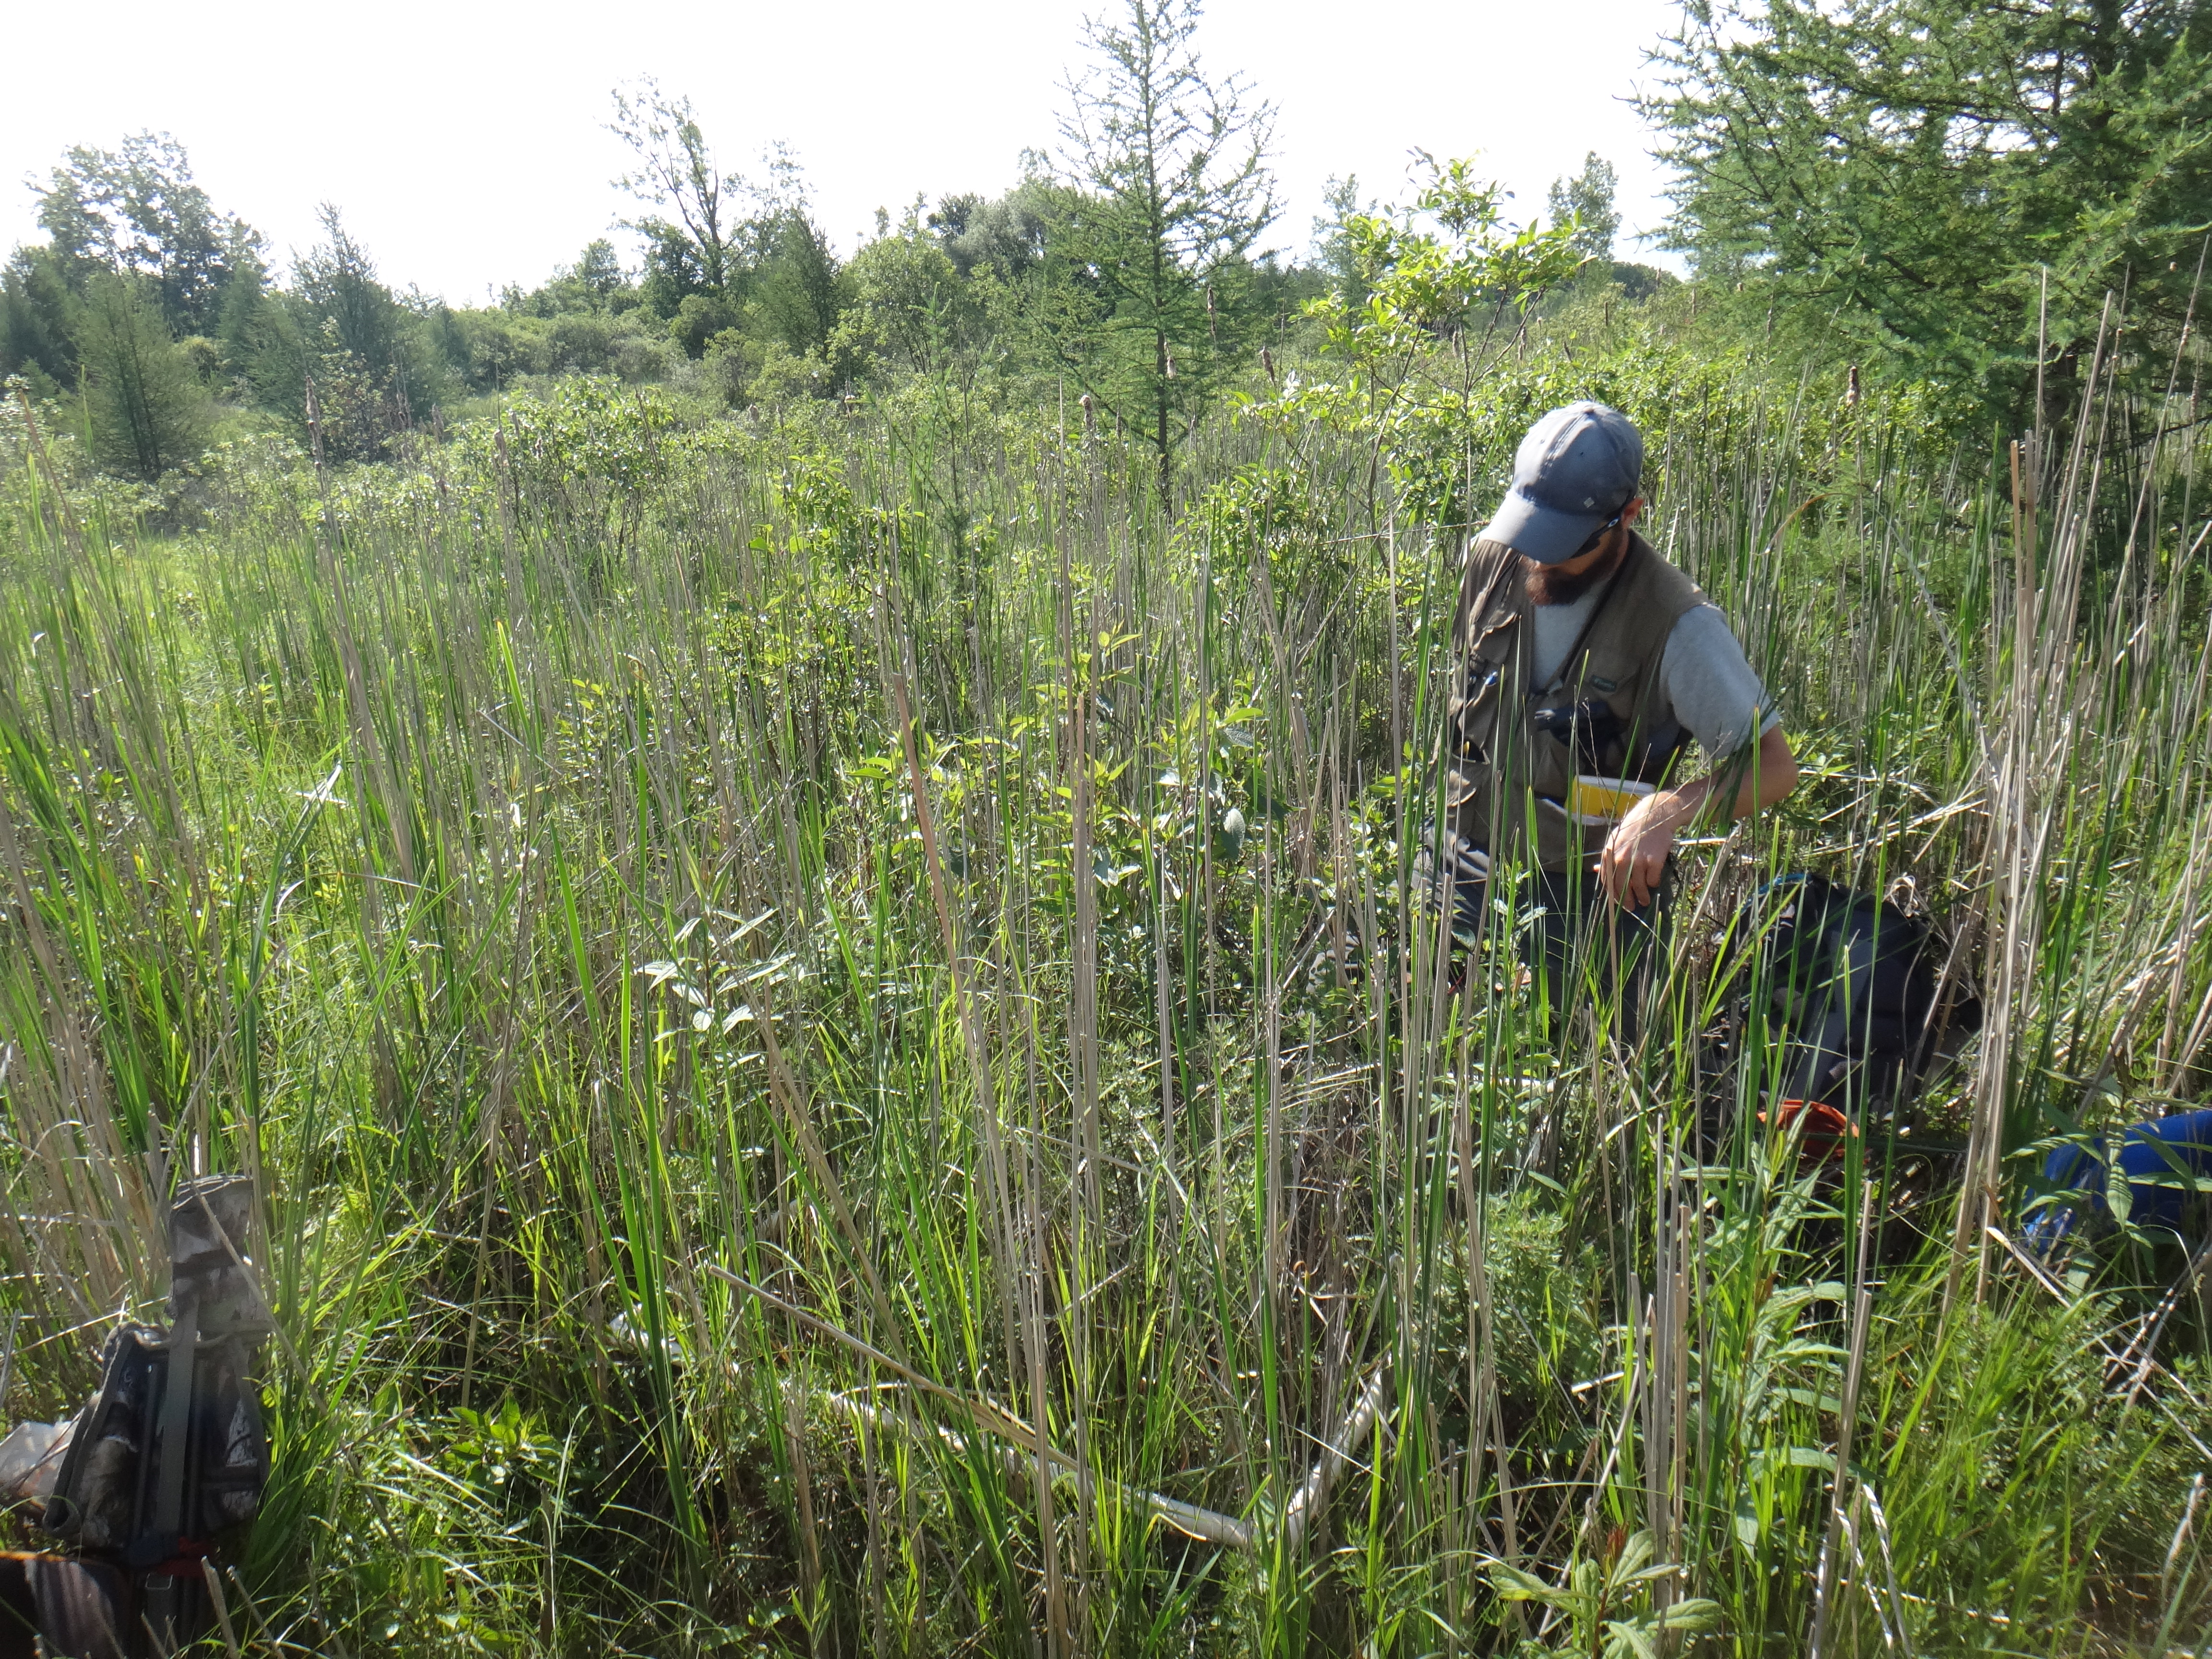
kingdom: Plantae
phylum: Tracheophyta
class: Magnoliopsida
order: Asterales
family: Asteraceae
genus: Eutrochium
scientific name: Eutrochium maculatum
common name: Spotted joe pye weed
